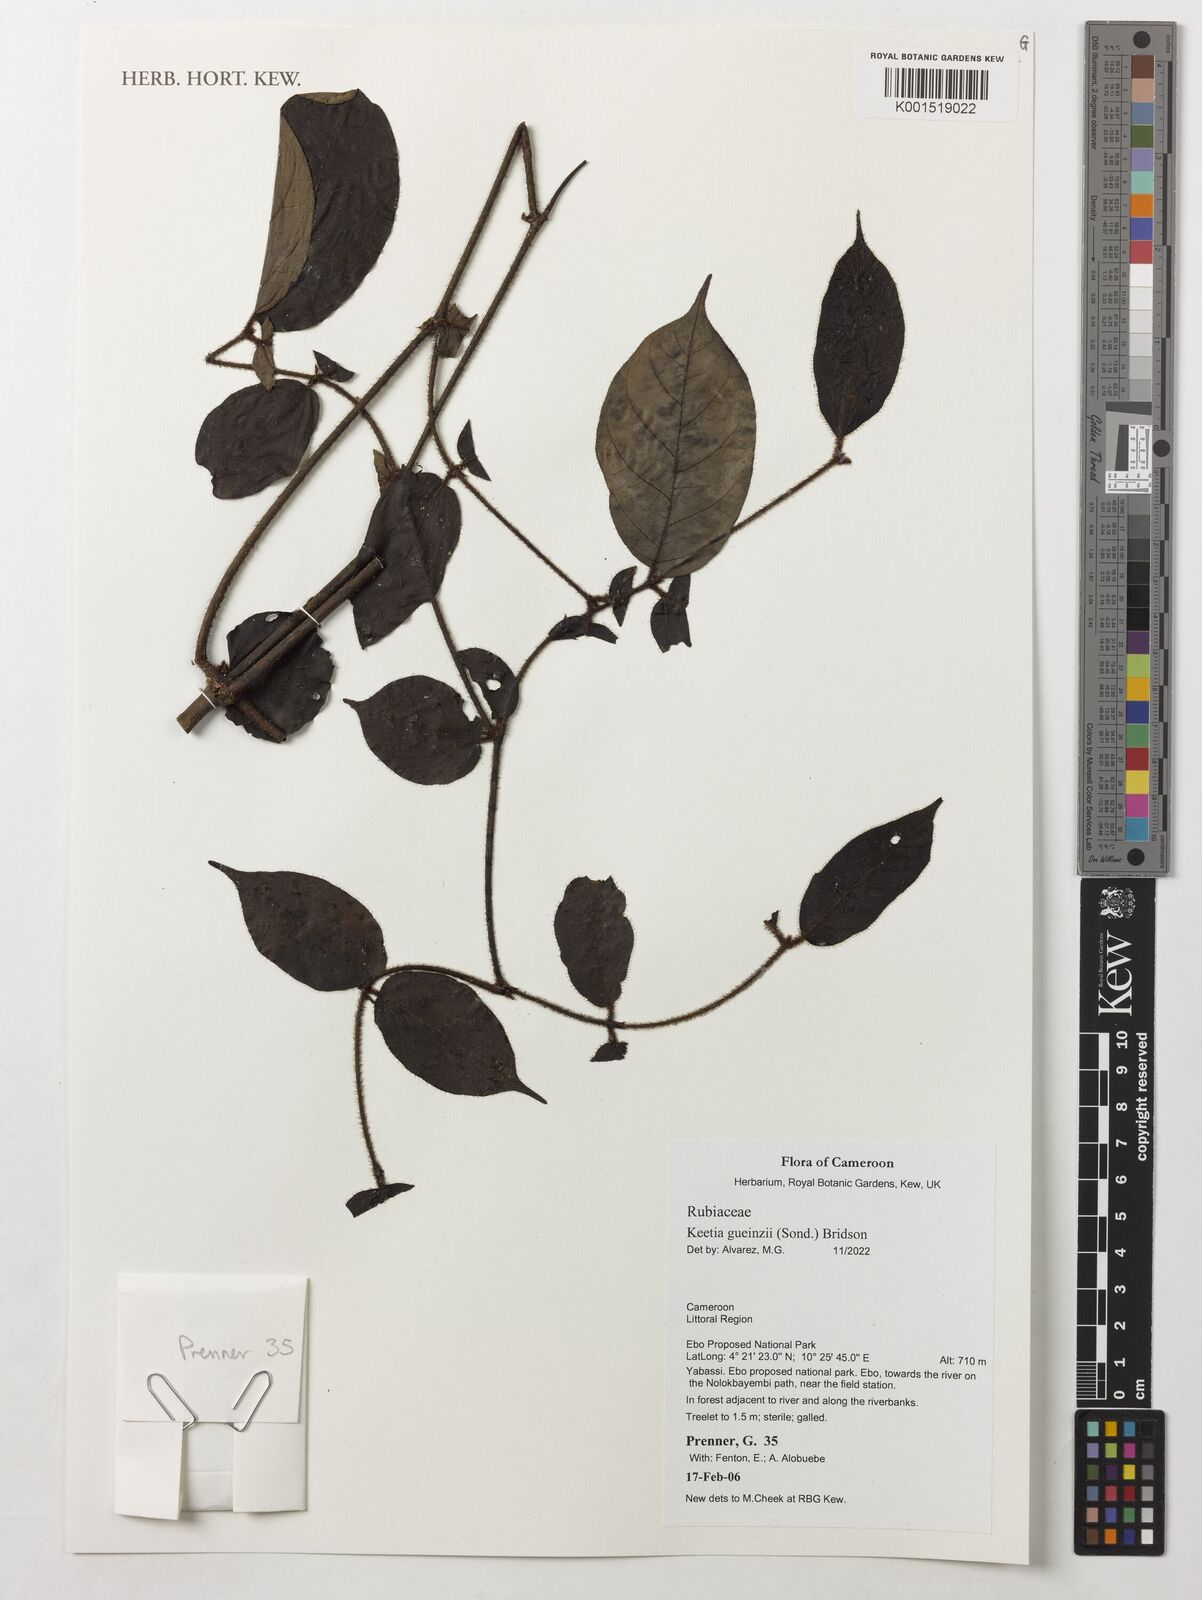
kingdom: Plantae
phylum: Tracheophyta
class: Magnoliopsida
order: Gentianales
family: Rubiaceae
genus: Keetia
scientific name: Keetia gueinzii
